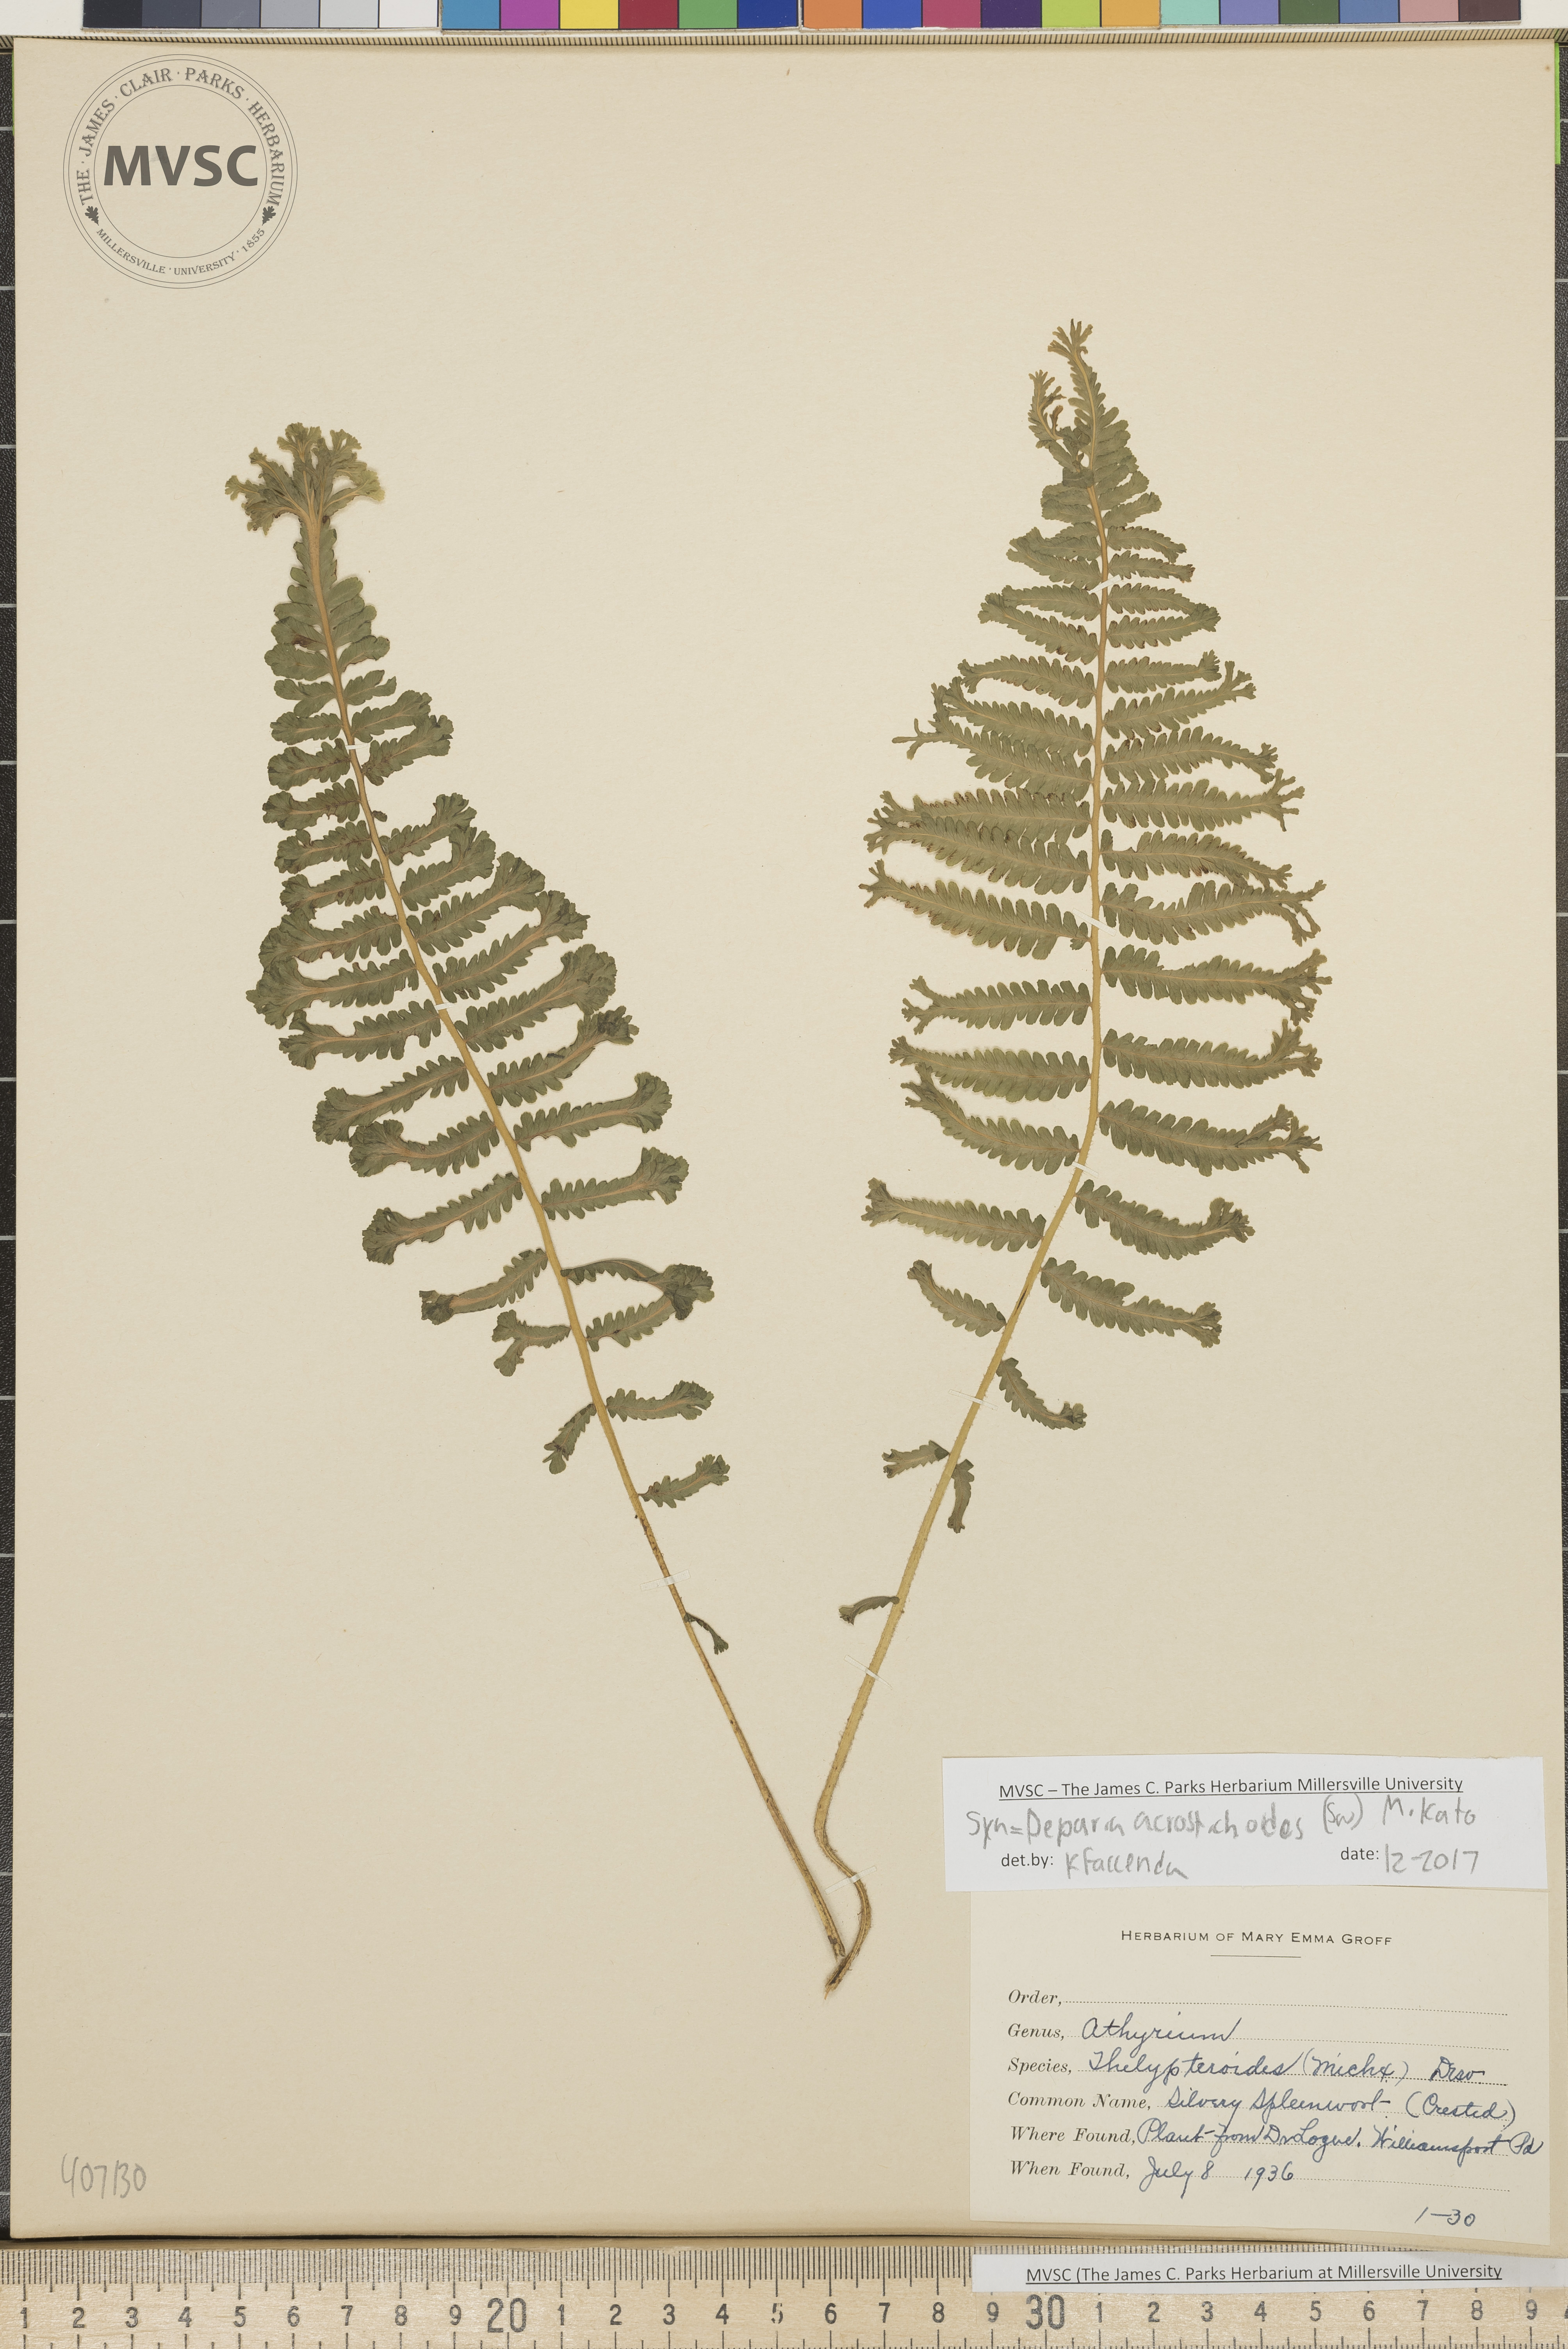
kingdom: Plantae
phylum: Tracheophyta
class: Polypodiopsida
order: Polypodiales
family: Athyriaceae
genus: Deparia
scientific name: Deparia acrostichoides
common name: Silver false spleenwort
